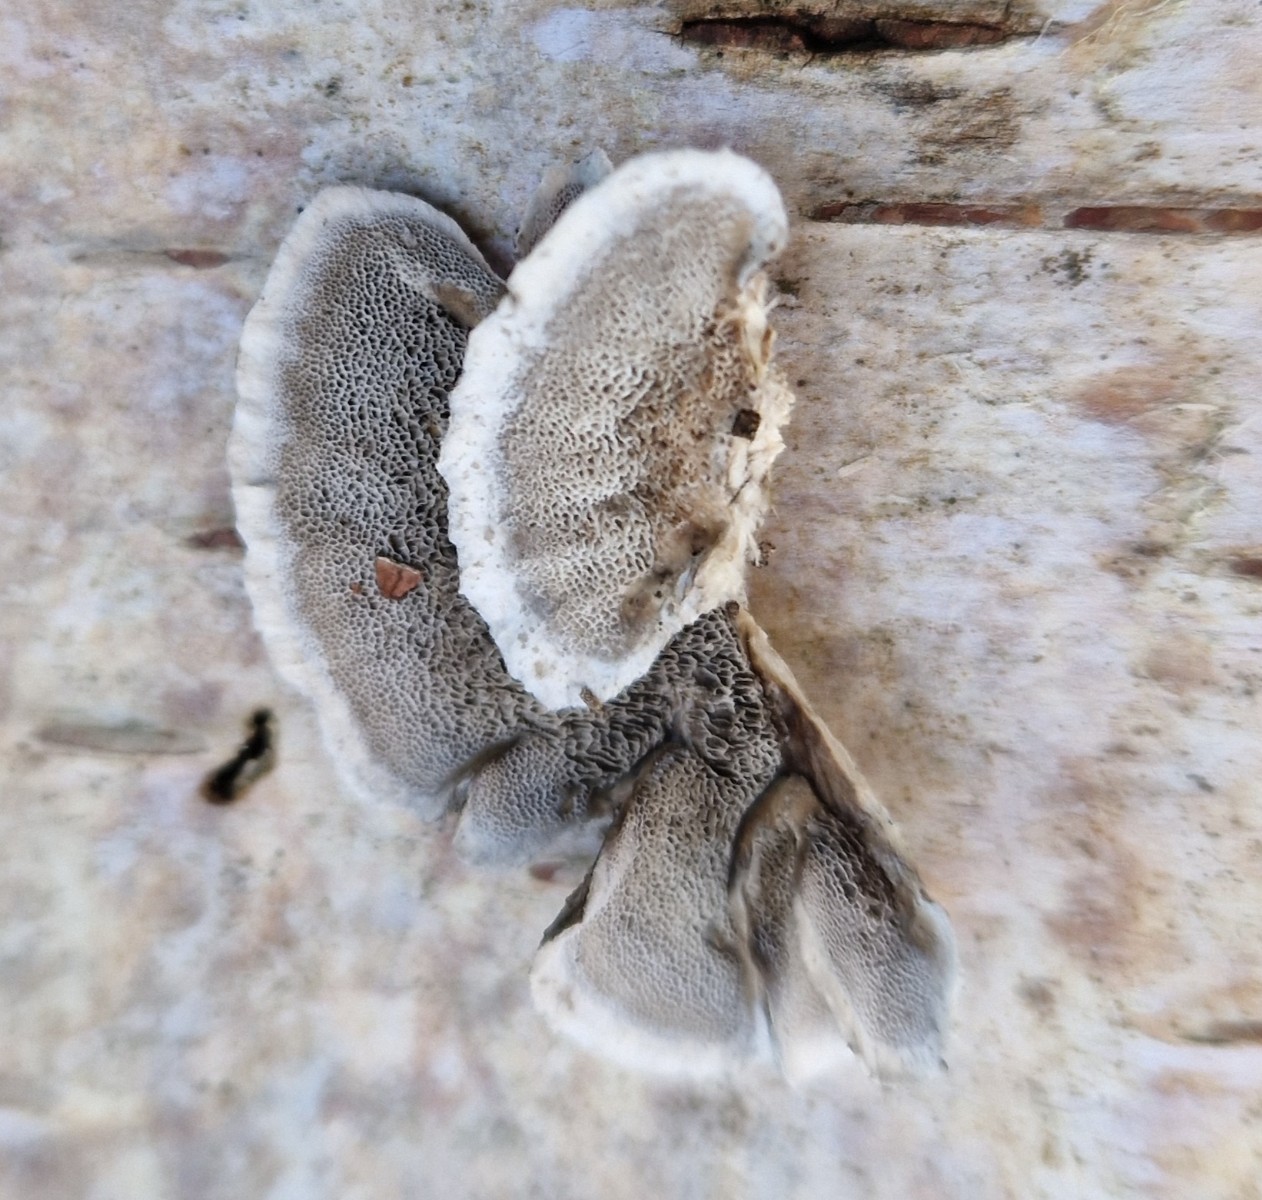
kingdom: Fungi
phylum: Basidiomycota
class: Agaricomycetes
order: Polyporales
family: Phanerochaetaceae
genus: Bjerkandera
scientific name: Bjerkandera adusta
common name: sveden sodporesvamp
